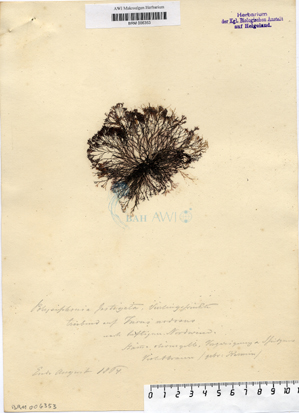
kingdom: Plantae
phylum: Rhodophyta
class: Florideophyceae
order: Ceramiales
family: Rhodomelaceae
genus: Vertebrata
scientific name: Vertebrata lanosa
